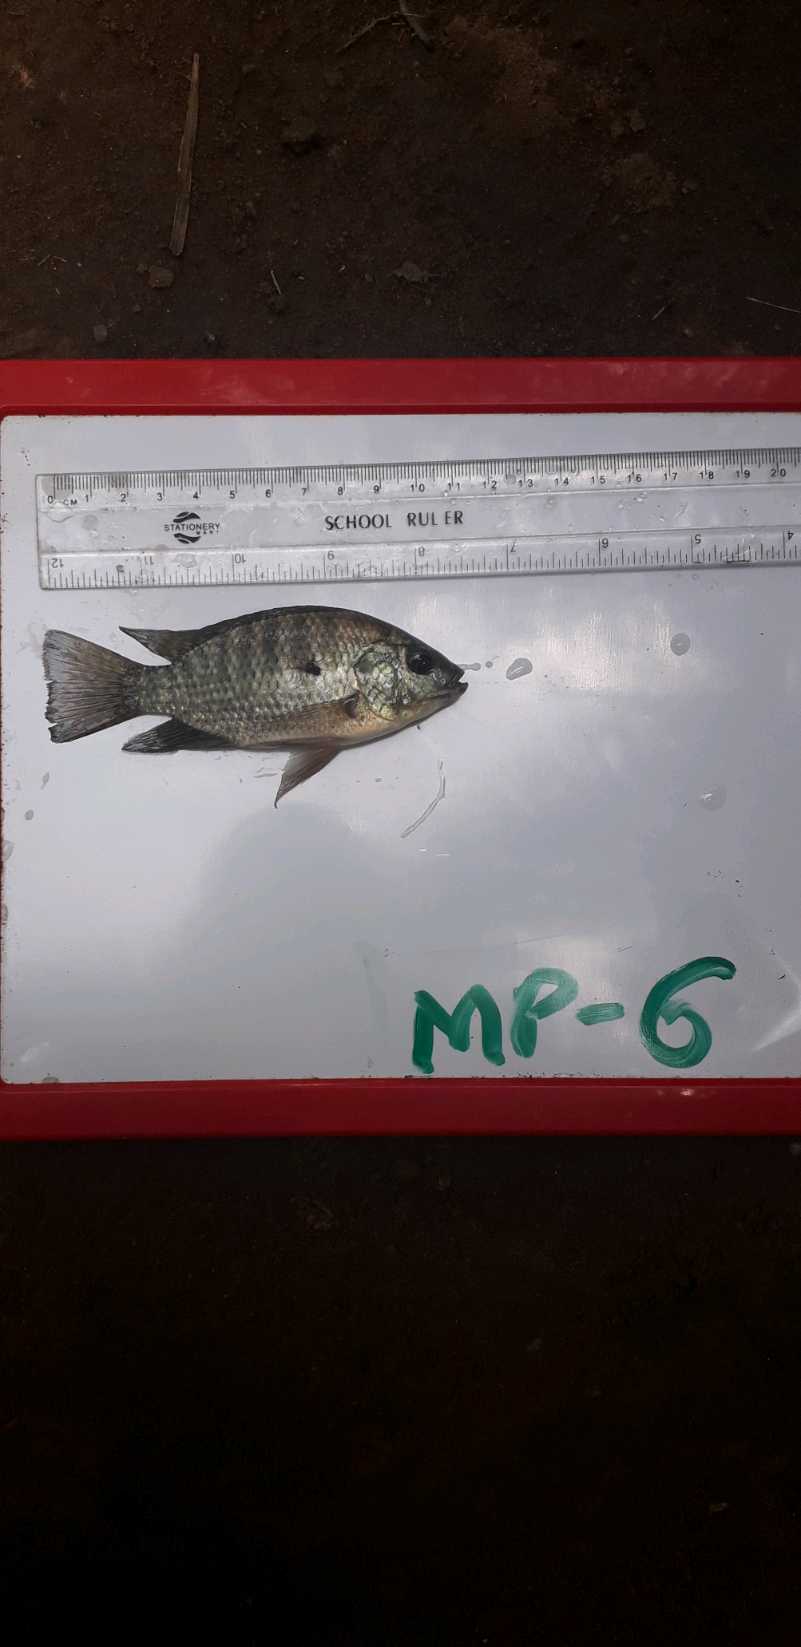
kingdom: Animalia
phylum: Chordata
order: Perciformes
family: Cichlidae
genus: Oreochromis
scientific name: Oreochromis leucostictus
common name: Blue spotted tilapia
